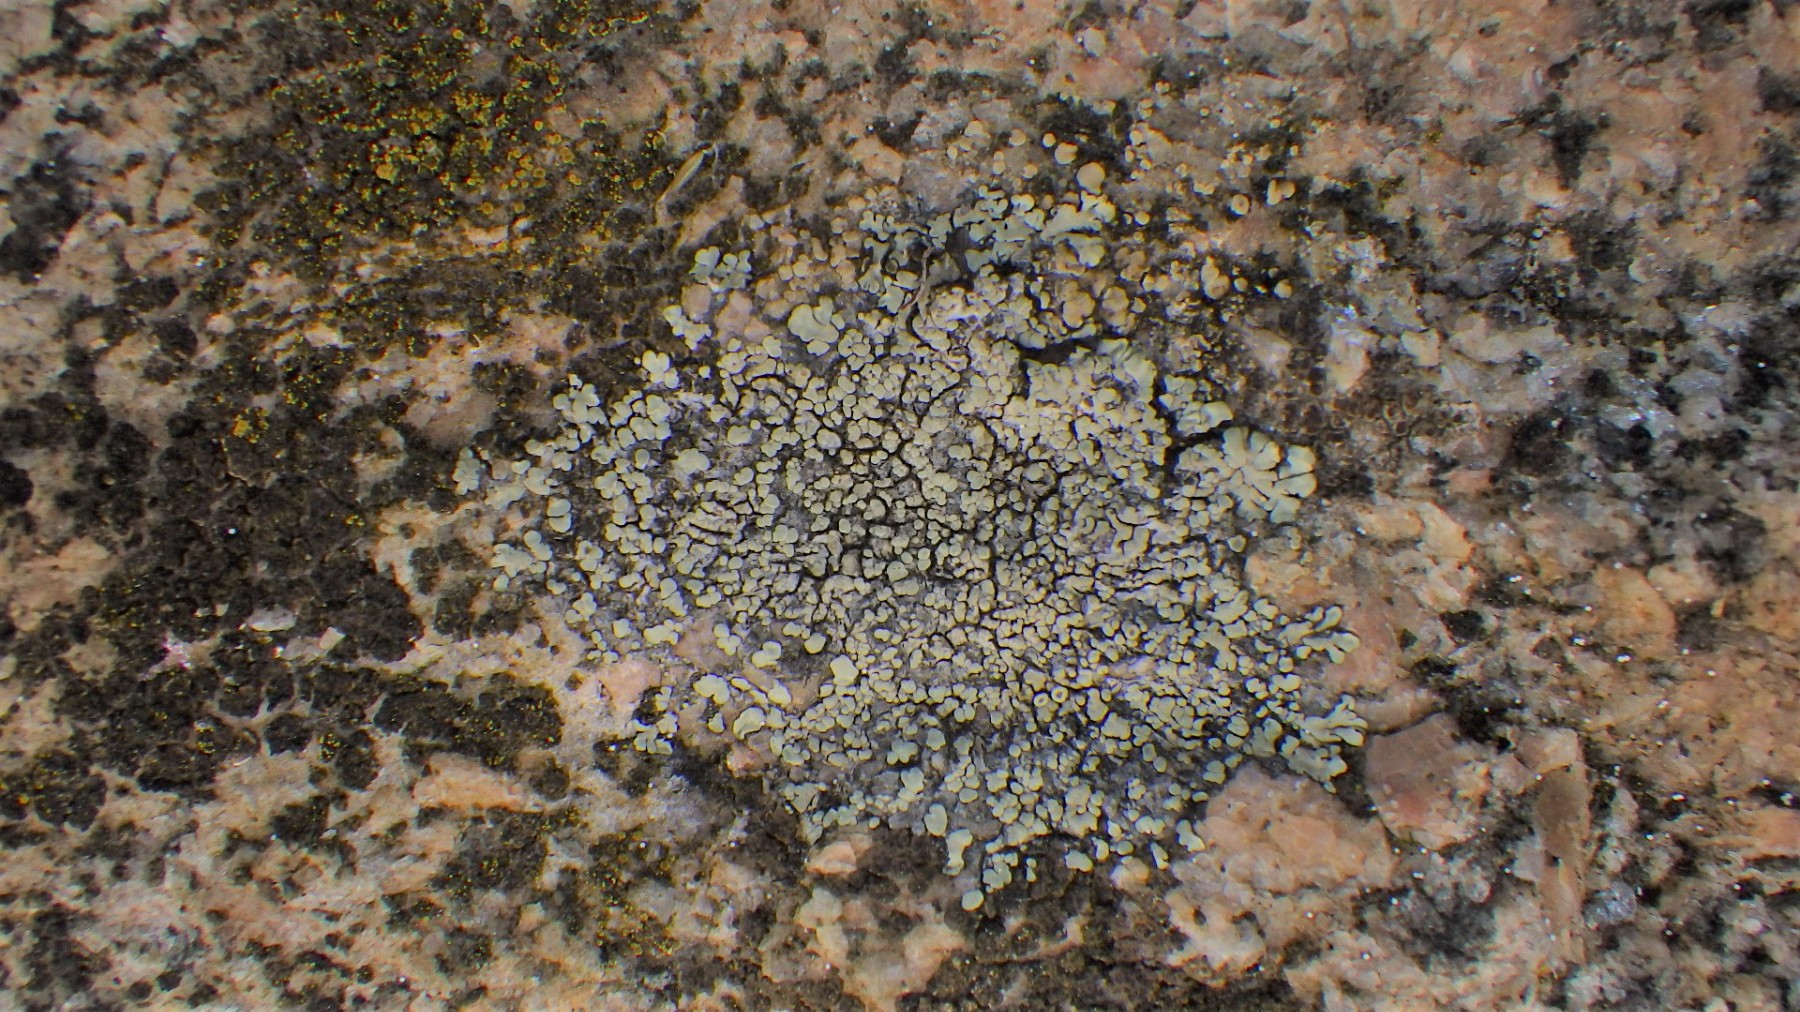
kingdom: Fungi
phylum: Ascomycota
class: Lecanoromycetes
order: Lecanorales
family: Lecanoraceae
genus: Protoparmeliopsis
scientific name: Protoparmeliopsis muralis
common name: randfliget kantskivelav
